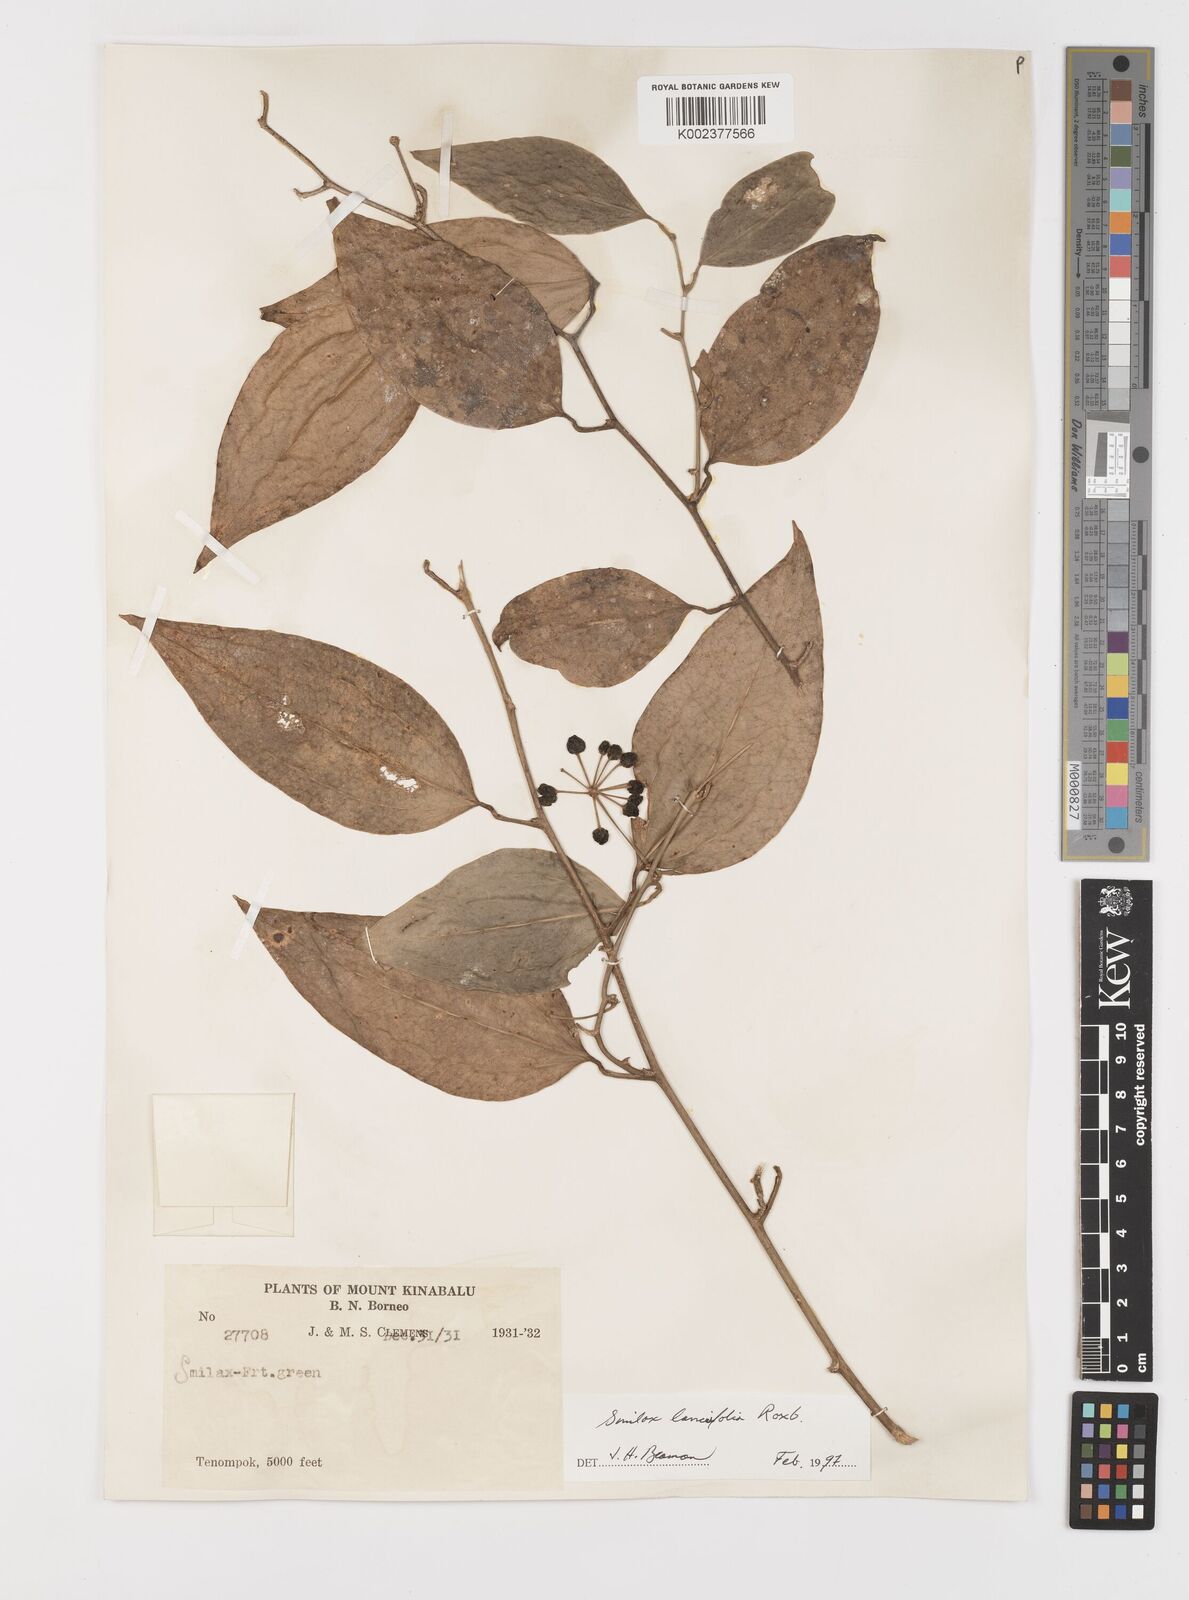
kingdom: Plantae
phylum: Tracheophyta
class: Liliopsida
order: Liliales
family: Smilacaceae
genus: Smilax
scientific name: Smilax lanceifolia
